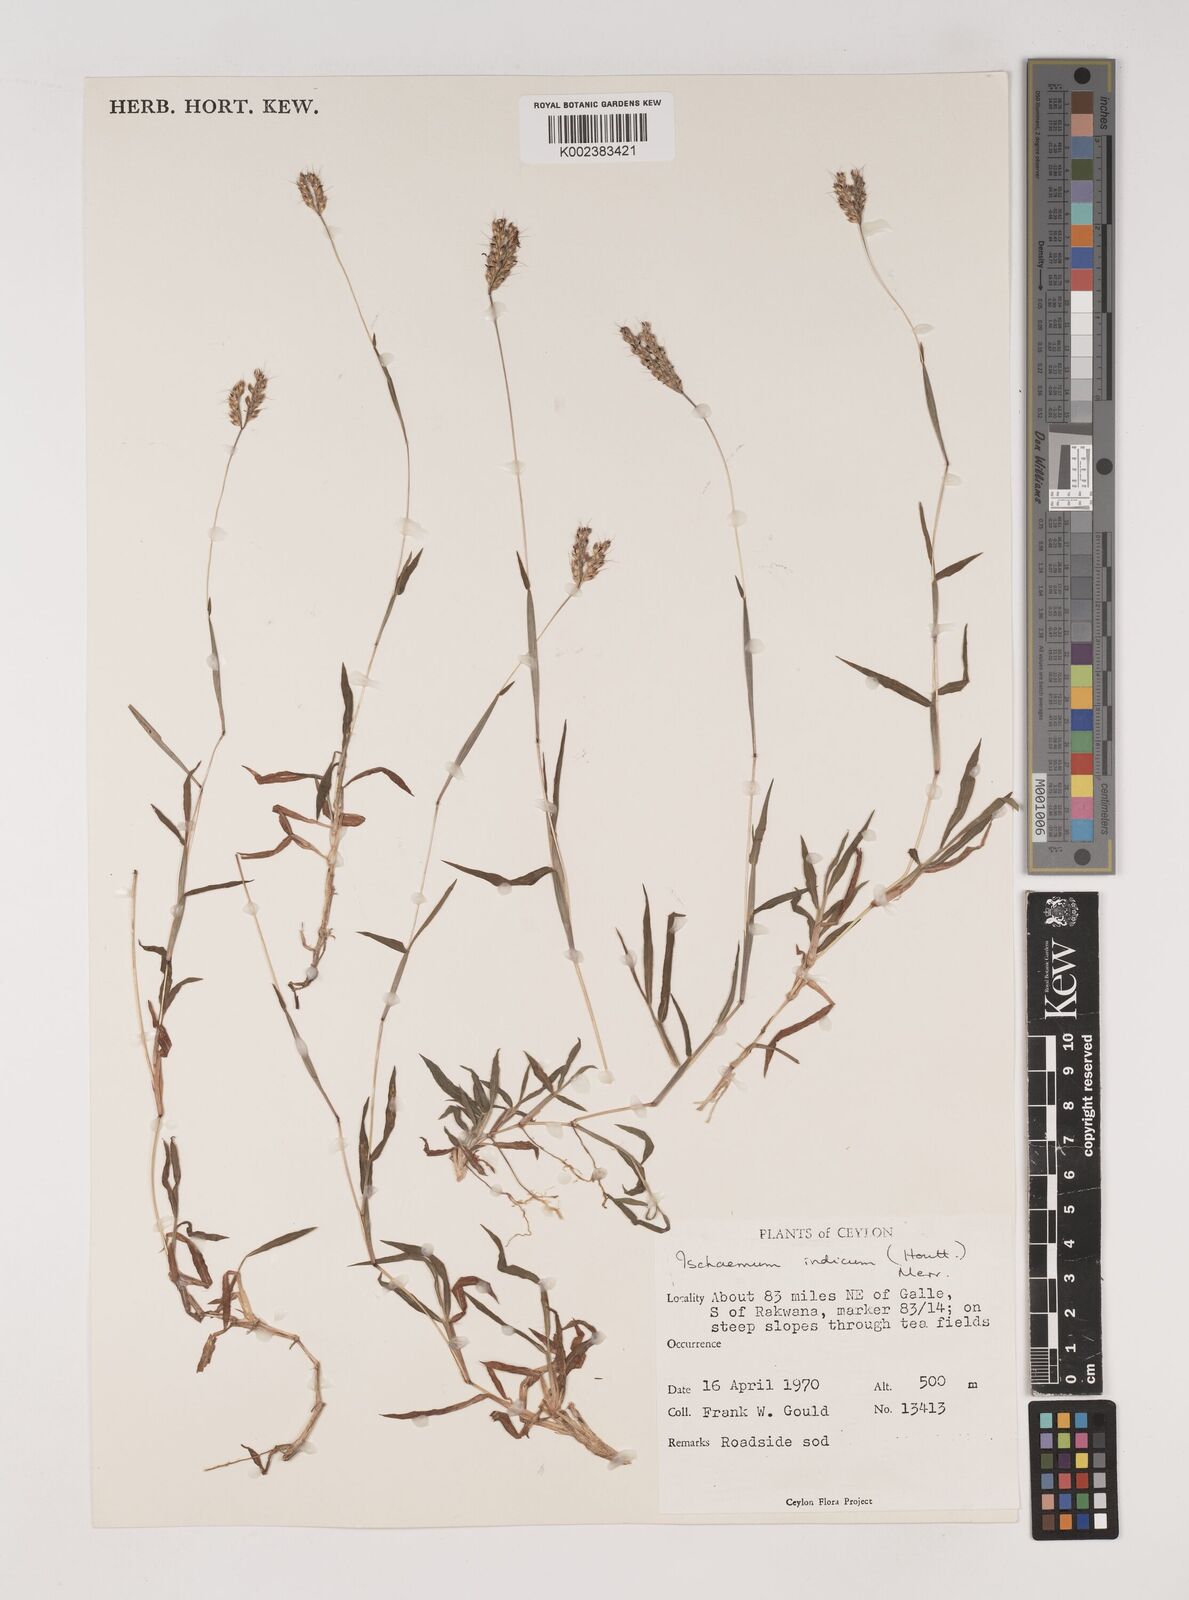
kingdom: Plantae
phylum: Tracheophyta
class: Liliopsida
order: Poales
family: Poaceae
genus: Polytrias
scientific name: Polytrias indica
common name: Indian murainagrass
